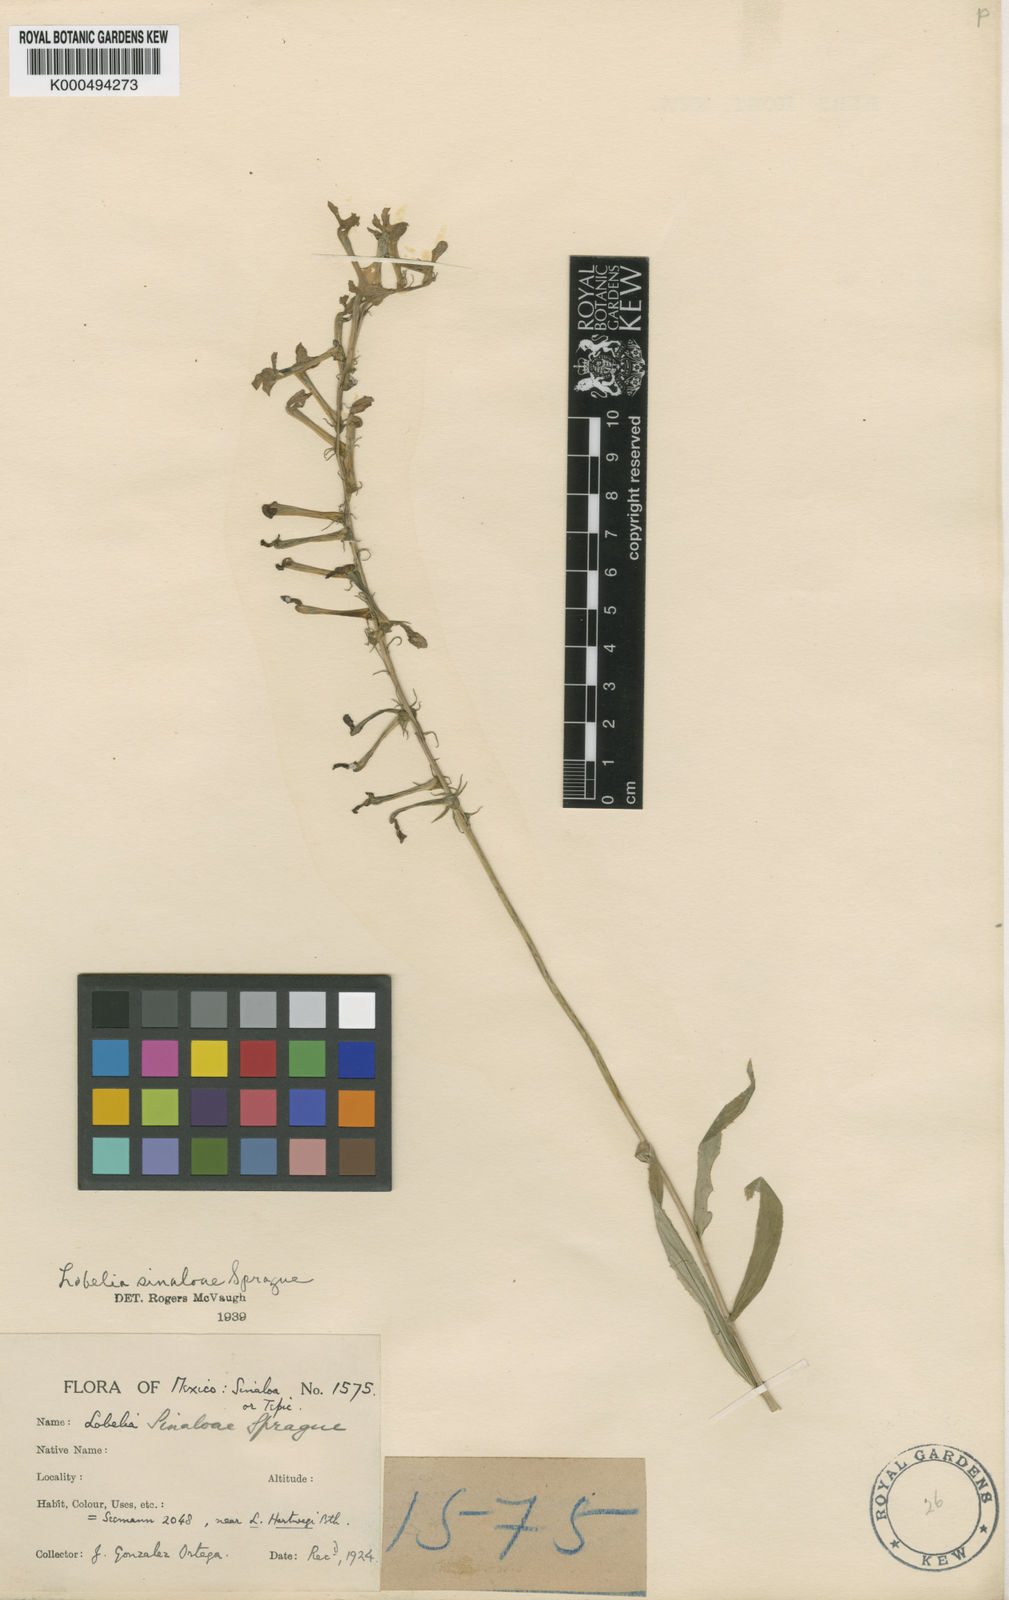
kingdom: Plantae
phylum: Tracheophyta
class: Magnoliopsida
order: Asterales
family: Campanulaceae
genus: Lobelia
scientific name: Lobelia sinaloae
